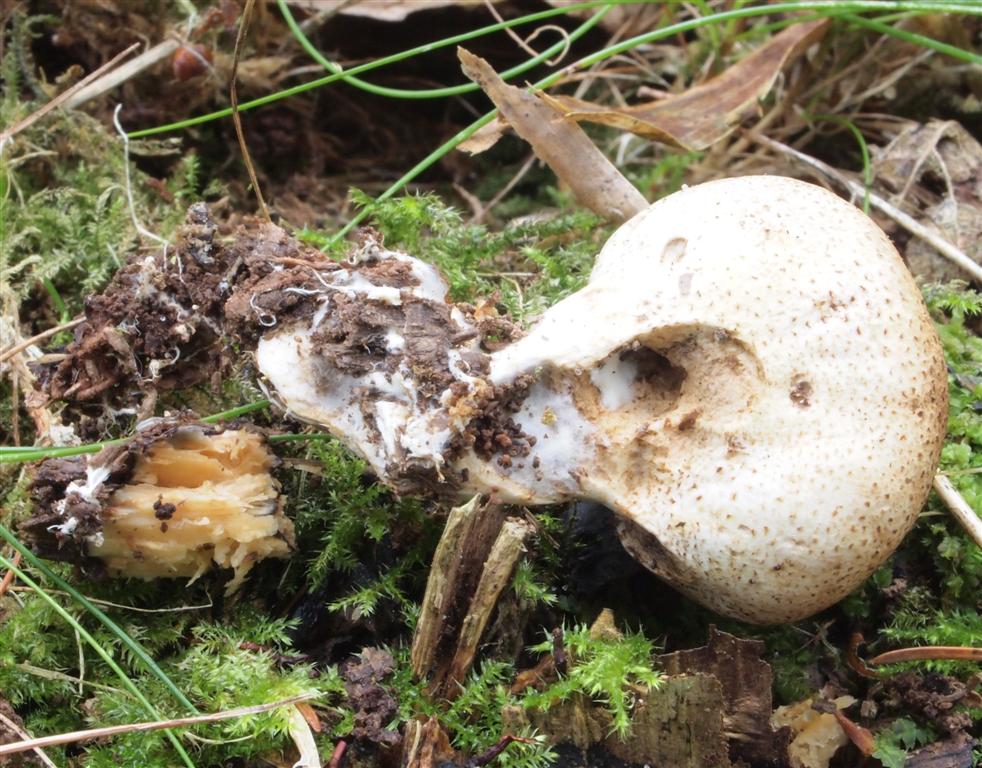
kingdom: Fungi
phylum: Basidiomycota
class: Agaricomycetes
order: Boletales
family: Sclerodermataceae
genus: Scleroderma
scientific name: Scleroderma verrucosum
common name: stilket bruskbold
